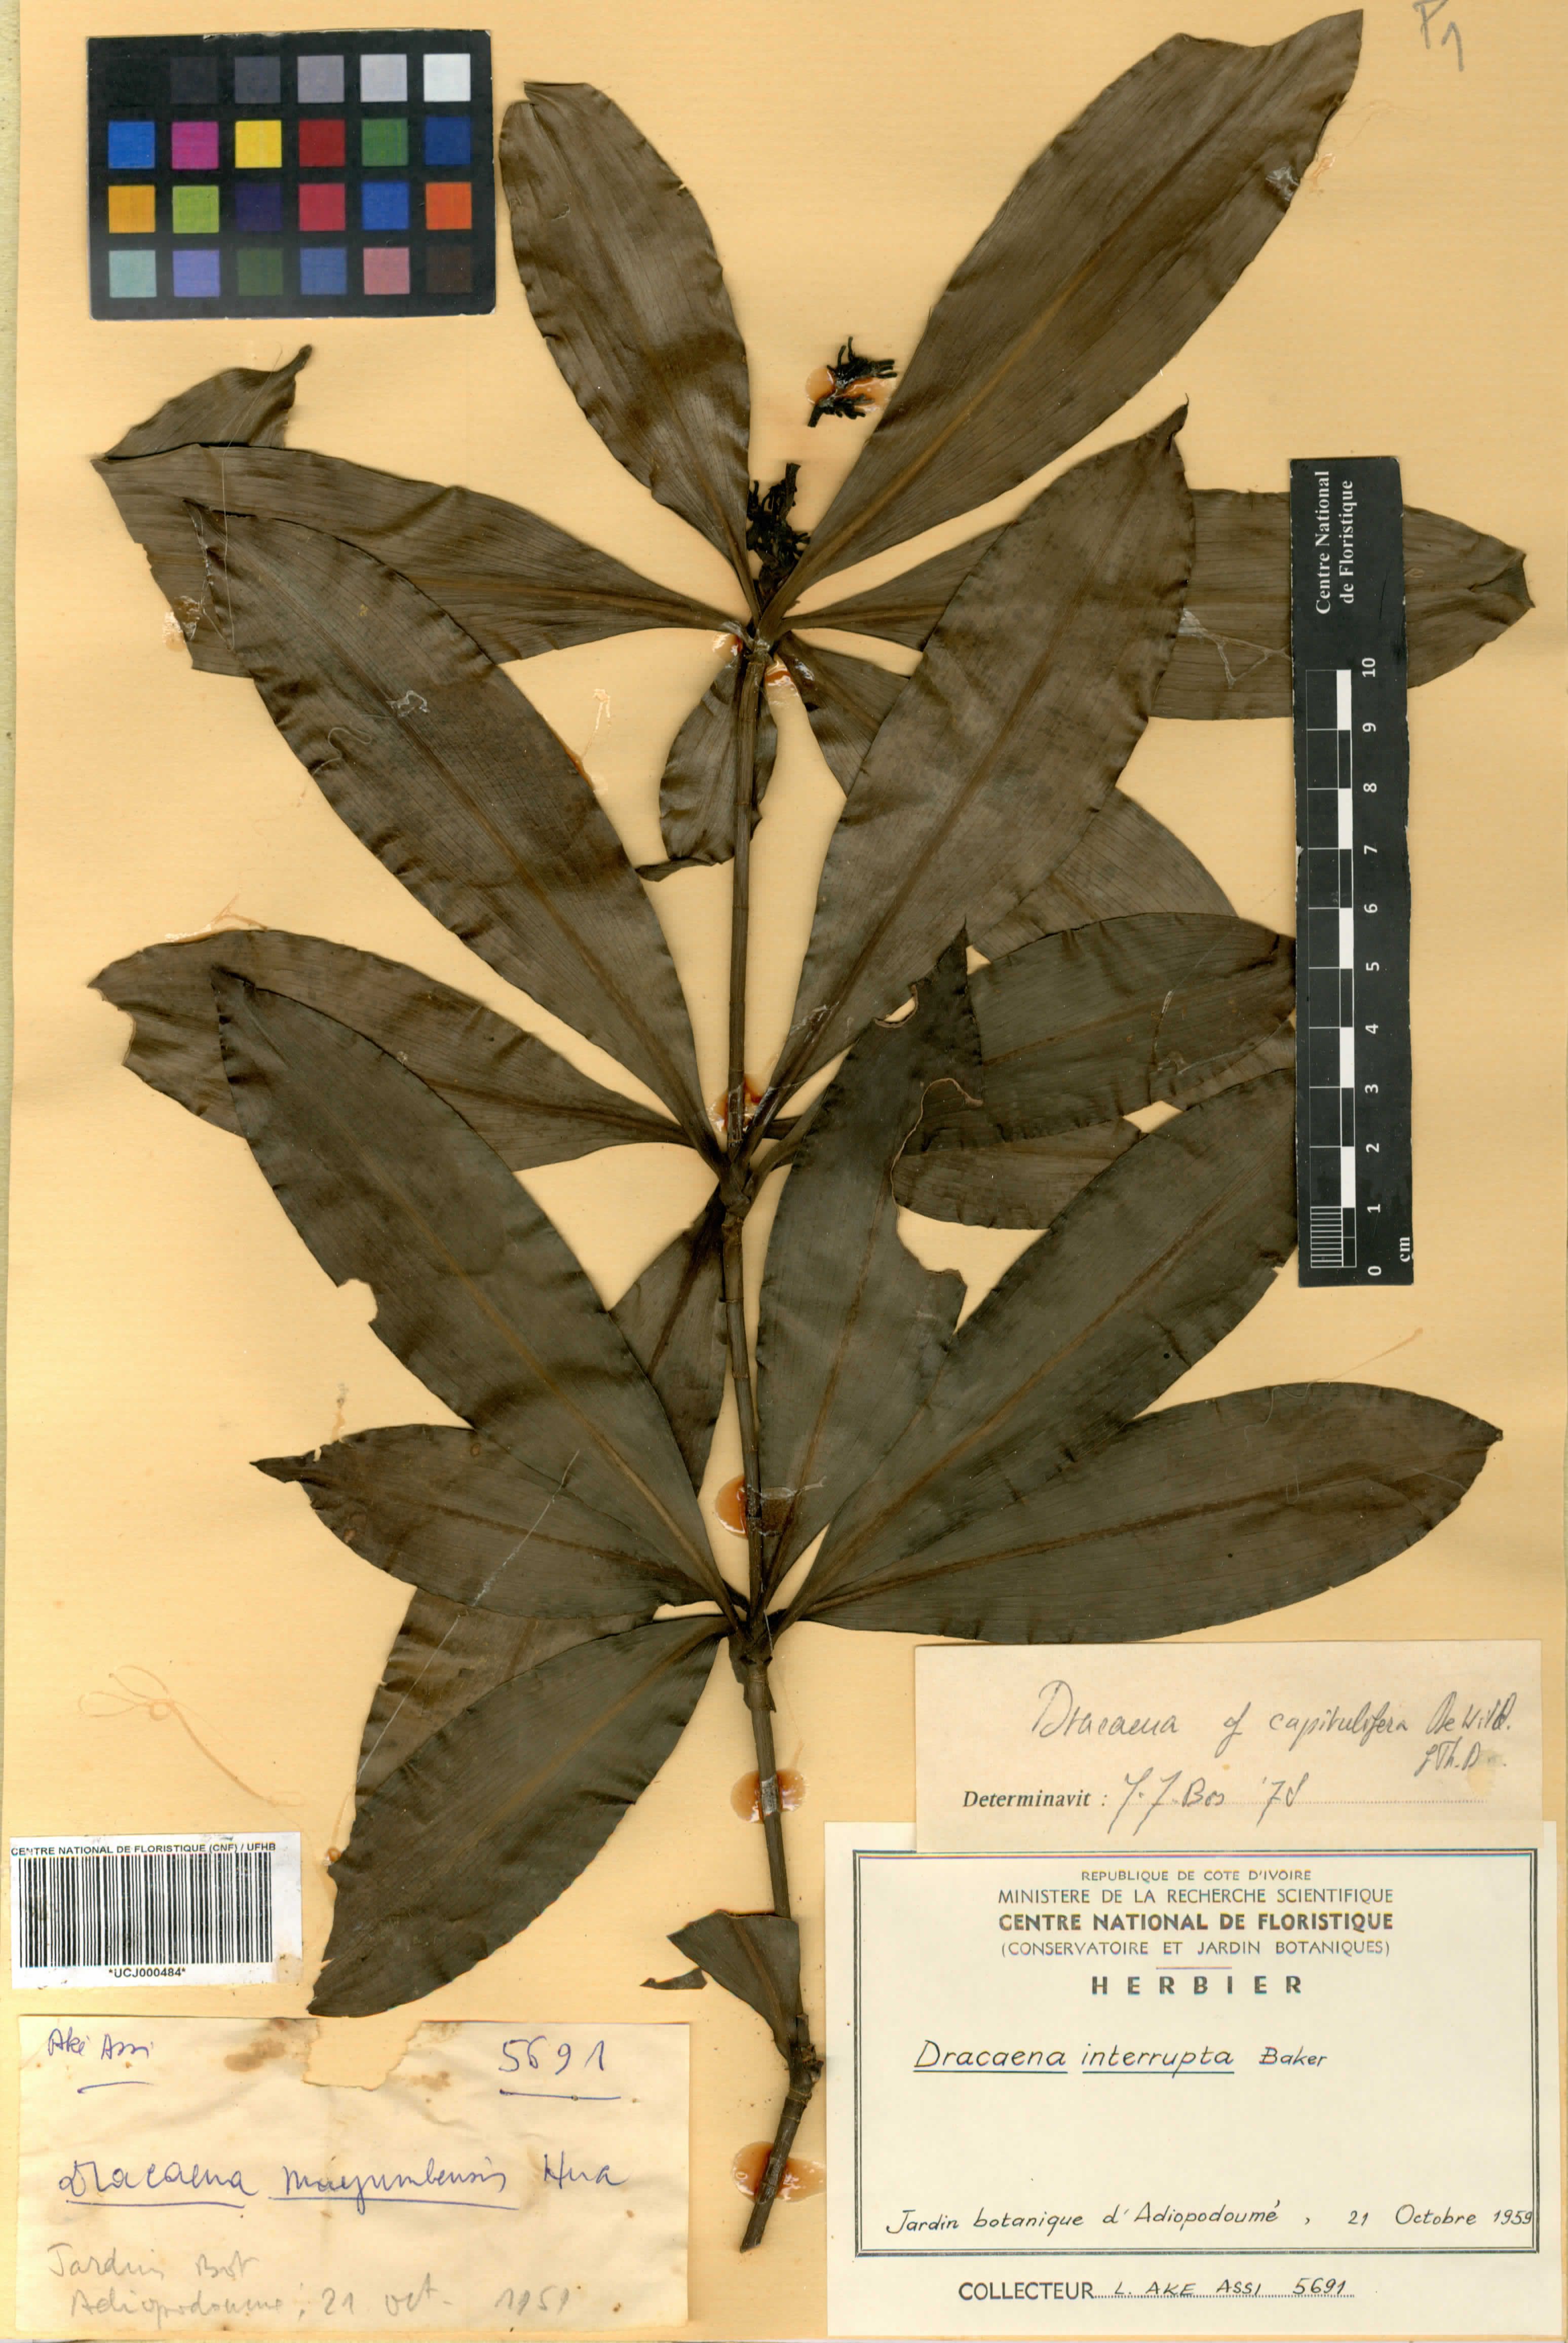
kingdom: Plantae
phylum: Tracheophyta
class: Liliopsida
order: Asparagales
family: Asparagaceae
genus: Dracaena
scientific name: Dracaena
